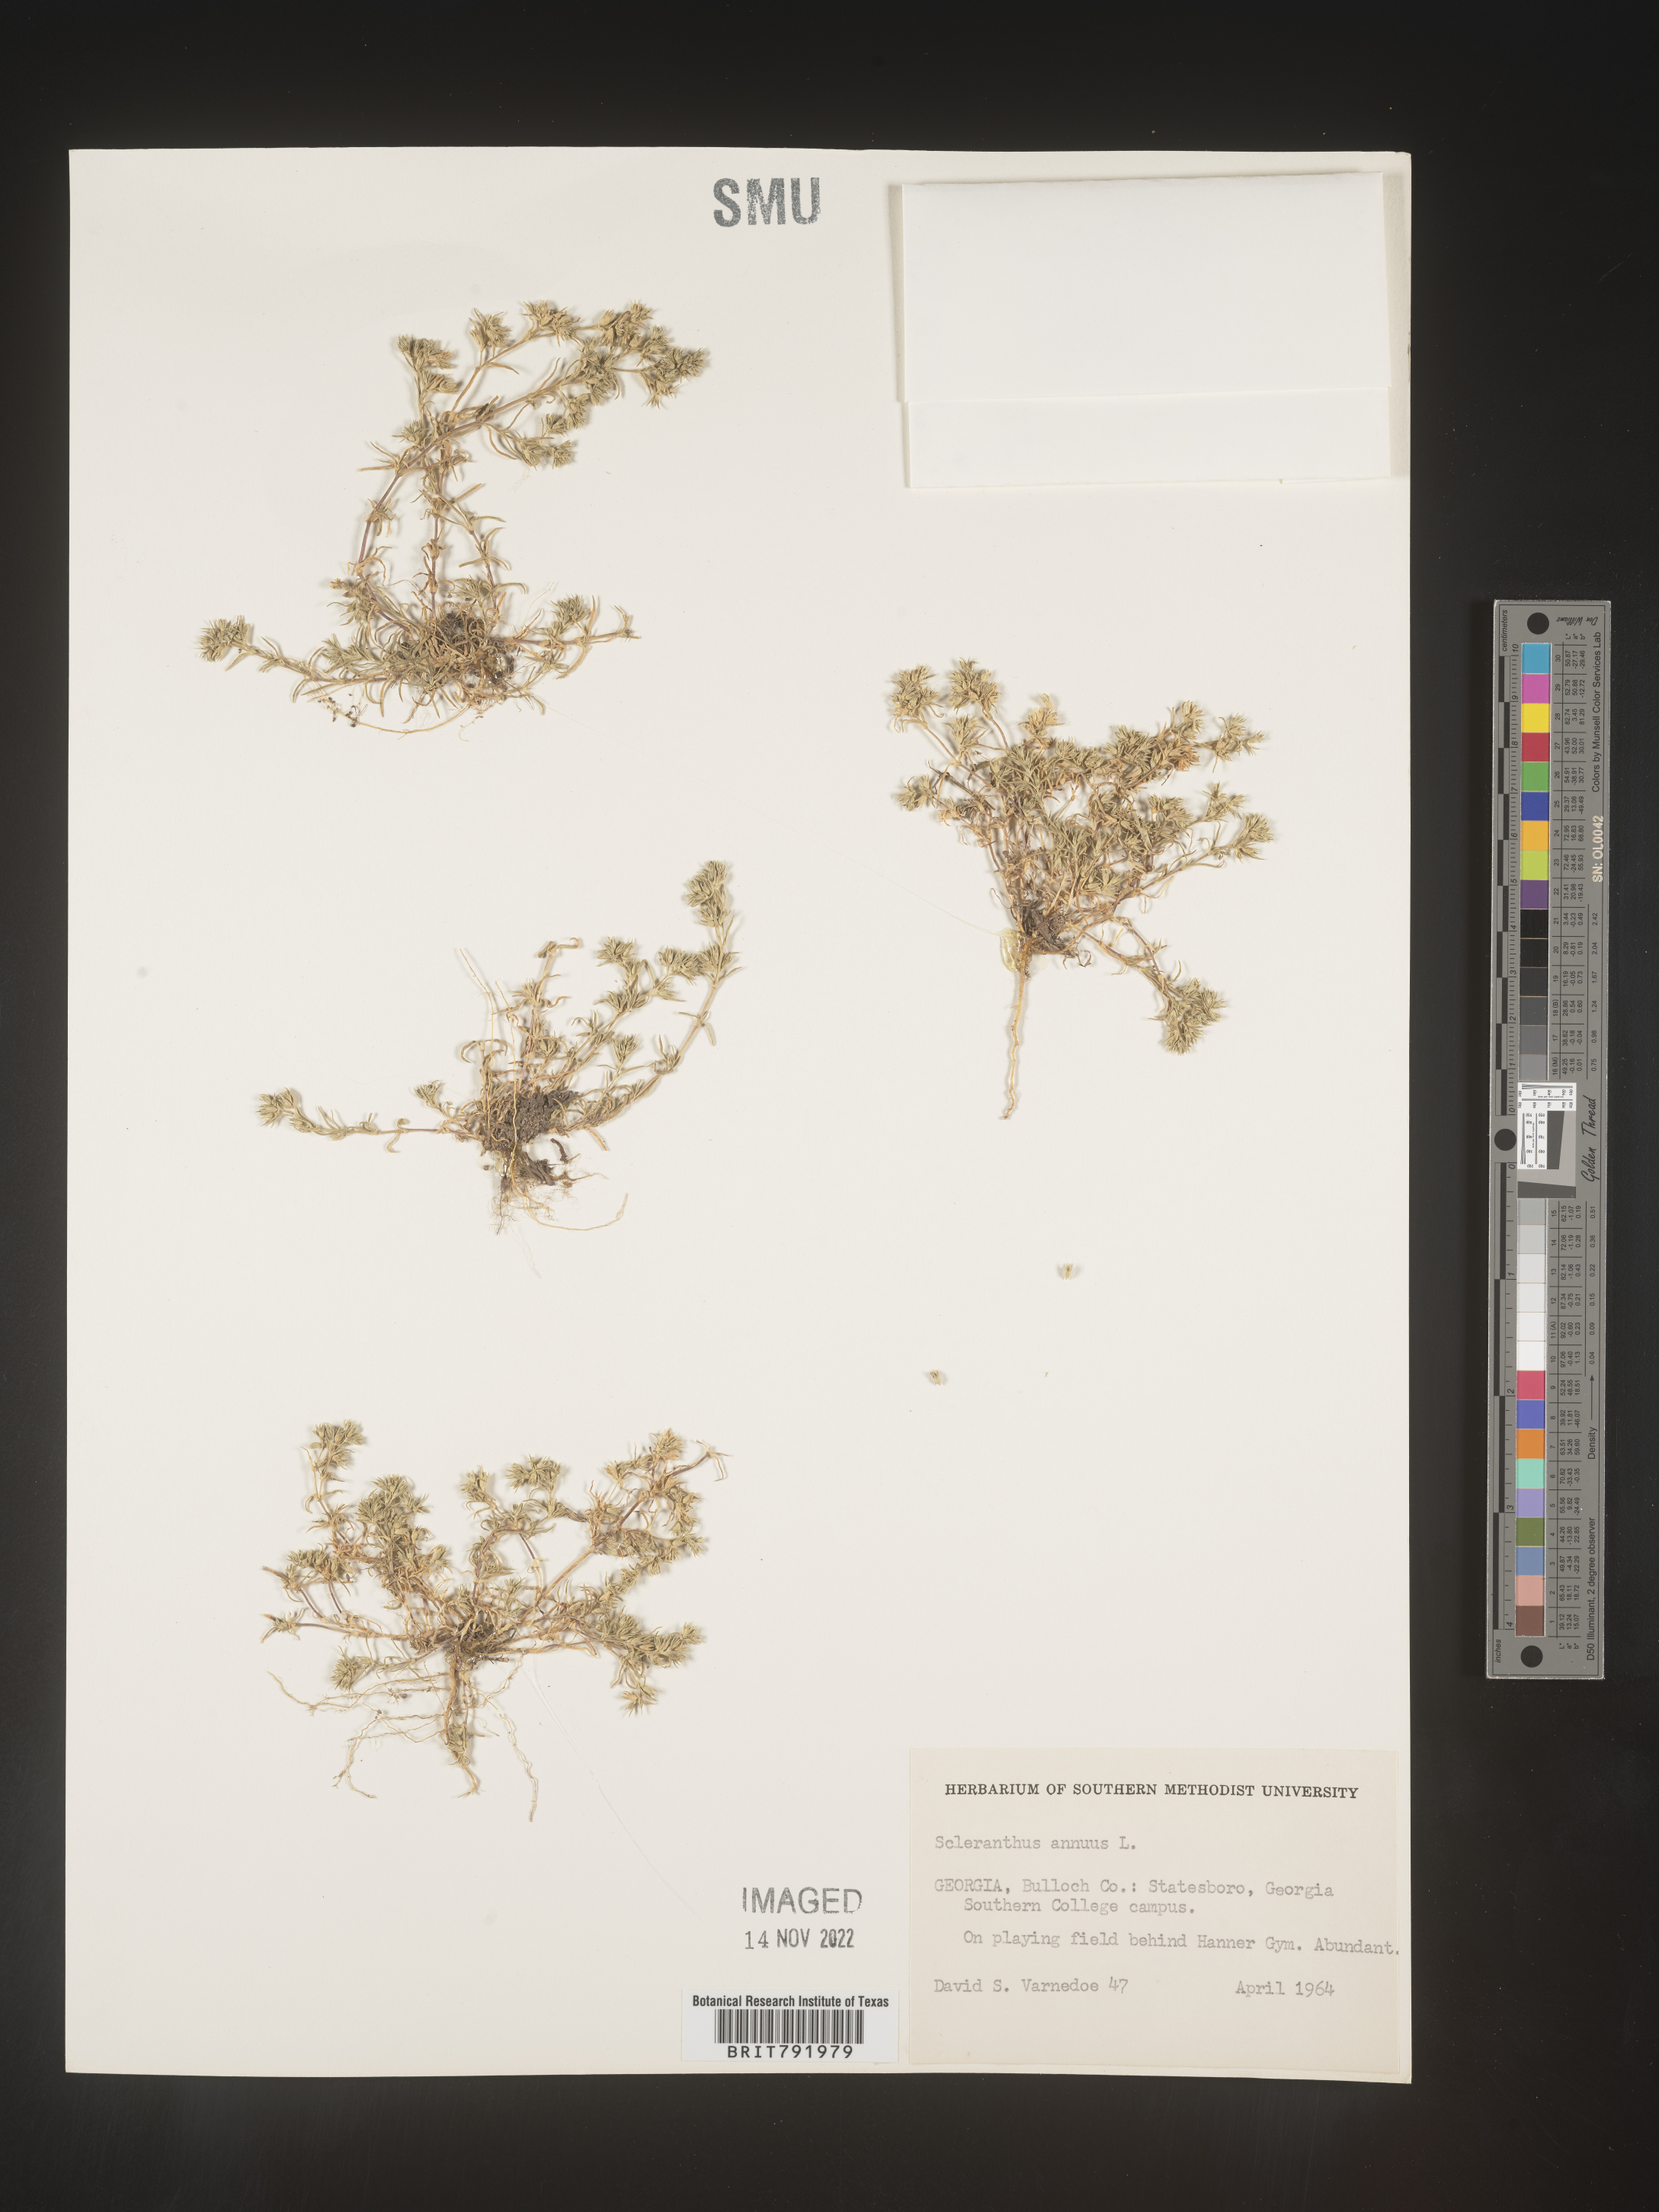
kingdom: Plantae
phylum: Tracheophyta
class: Magnoliopsida
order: Caryophyllales
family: Caryophyllaceae
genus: Scleranthus
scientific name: Scleranthus
